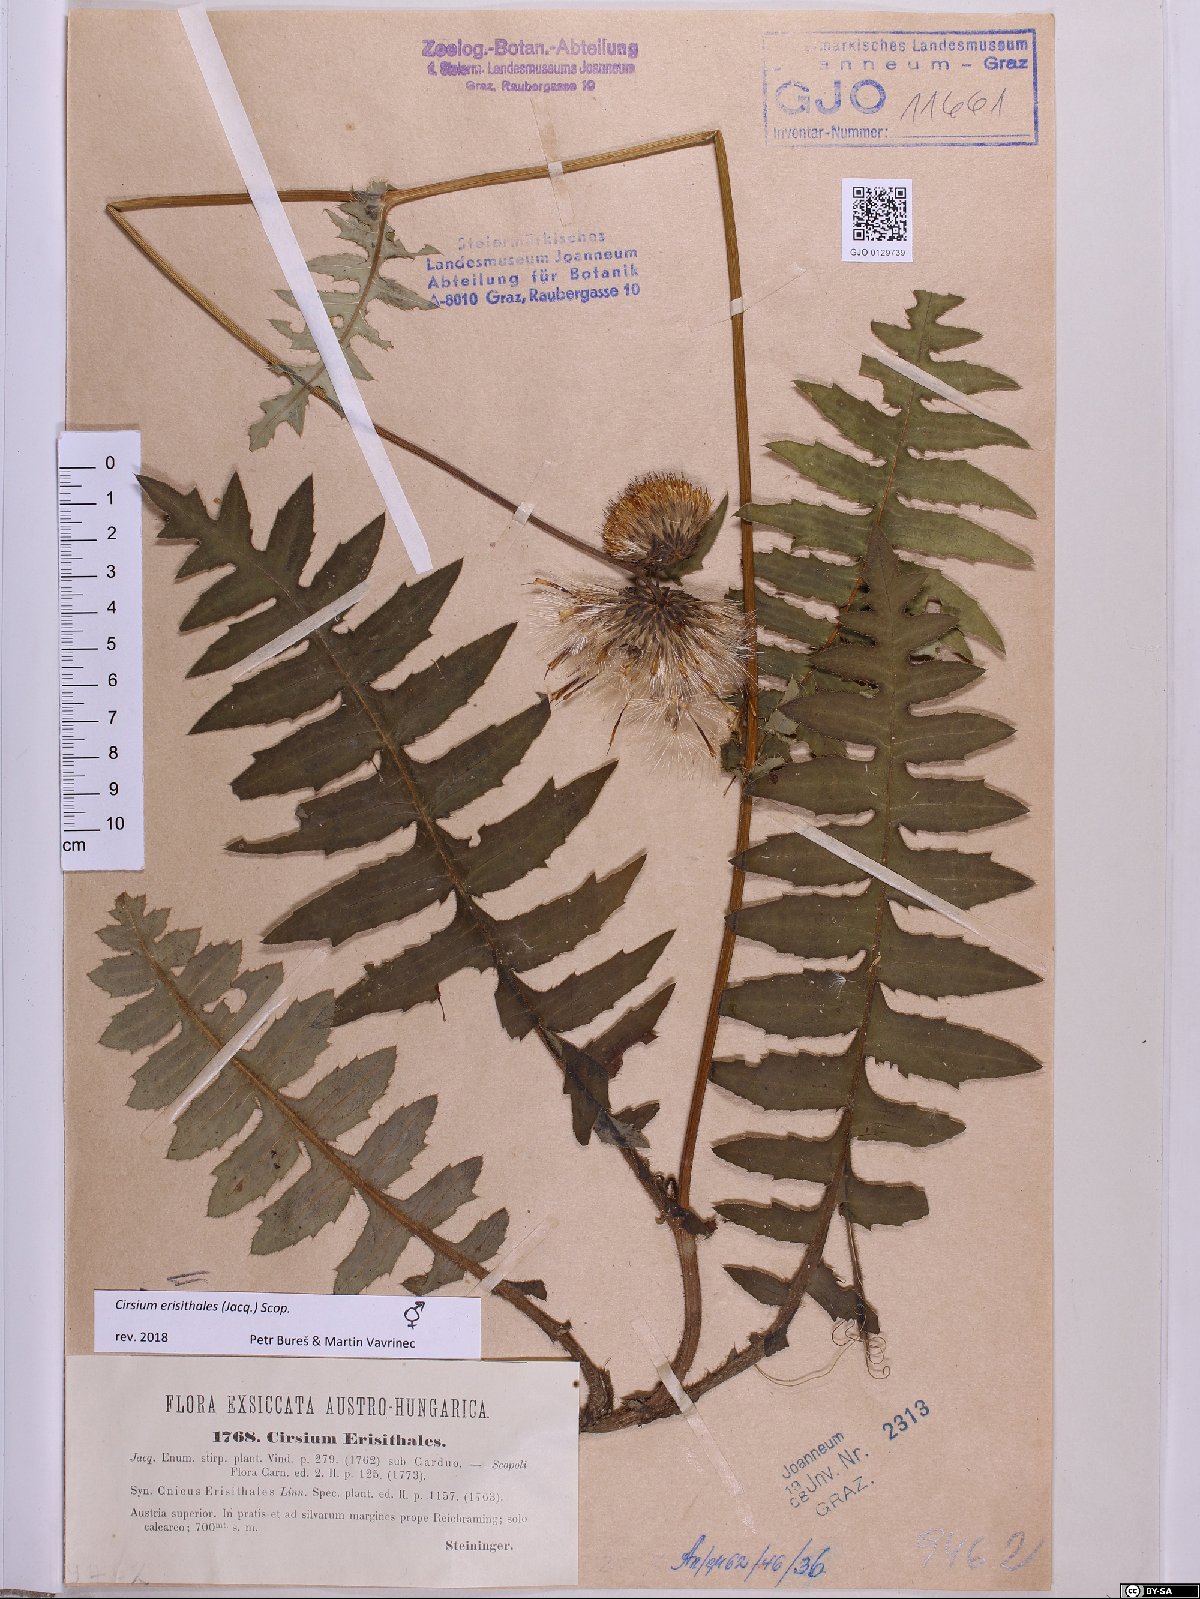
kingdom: Plantae
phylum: Tracheophyta
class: Magnoliopsida
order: Asterales
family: Asteraceae
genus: Cirsium
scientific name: Cirsium erisithales
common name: Yellow thistle
